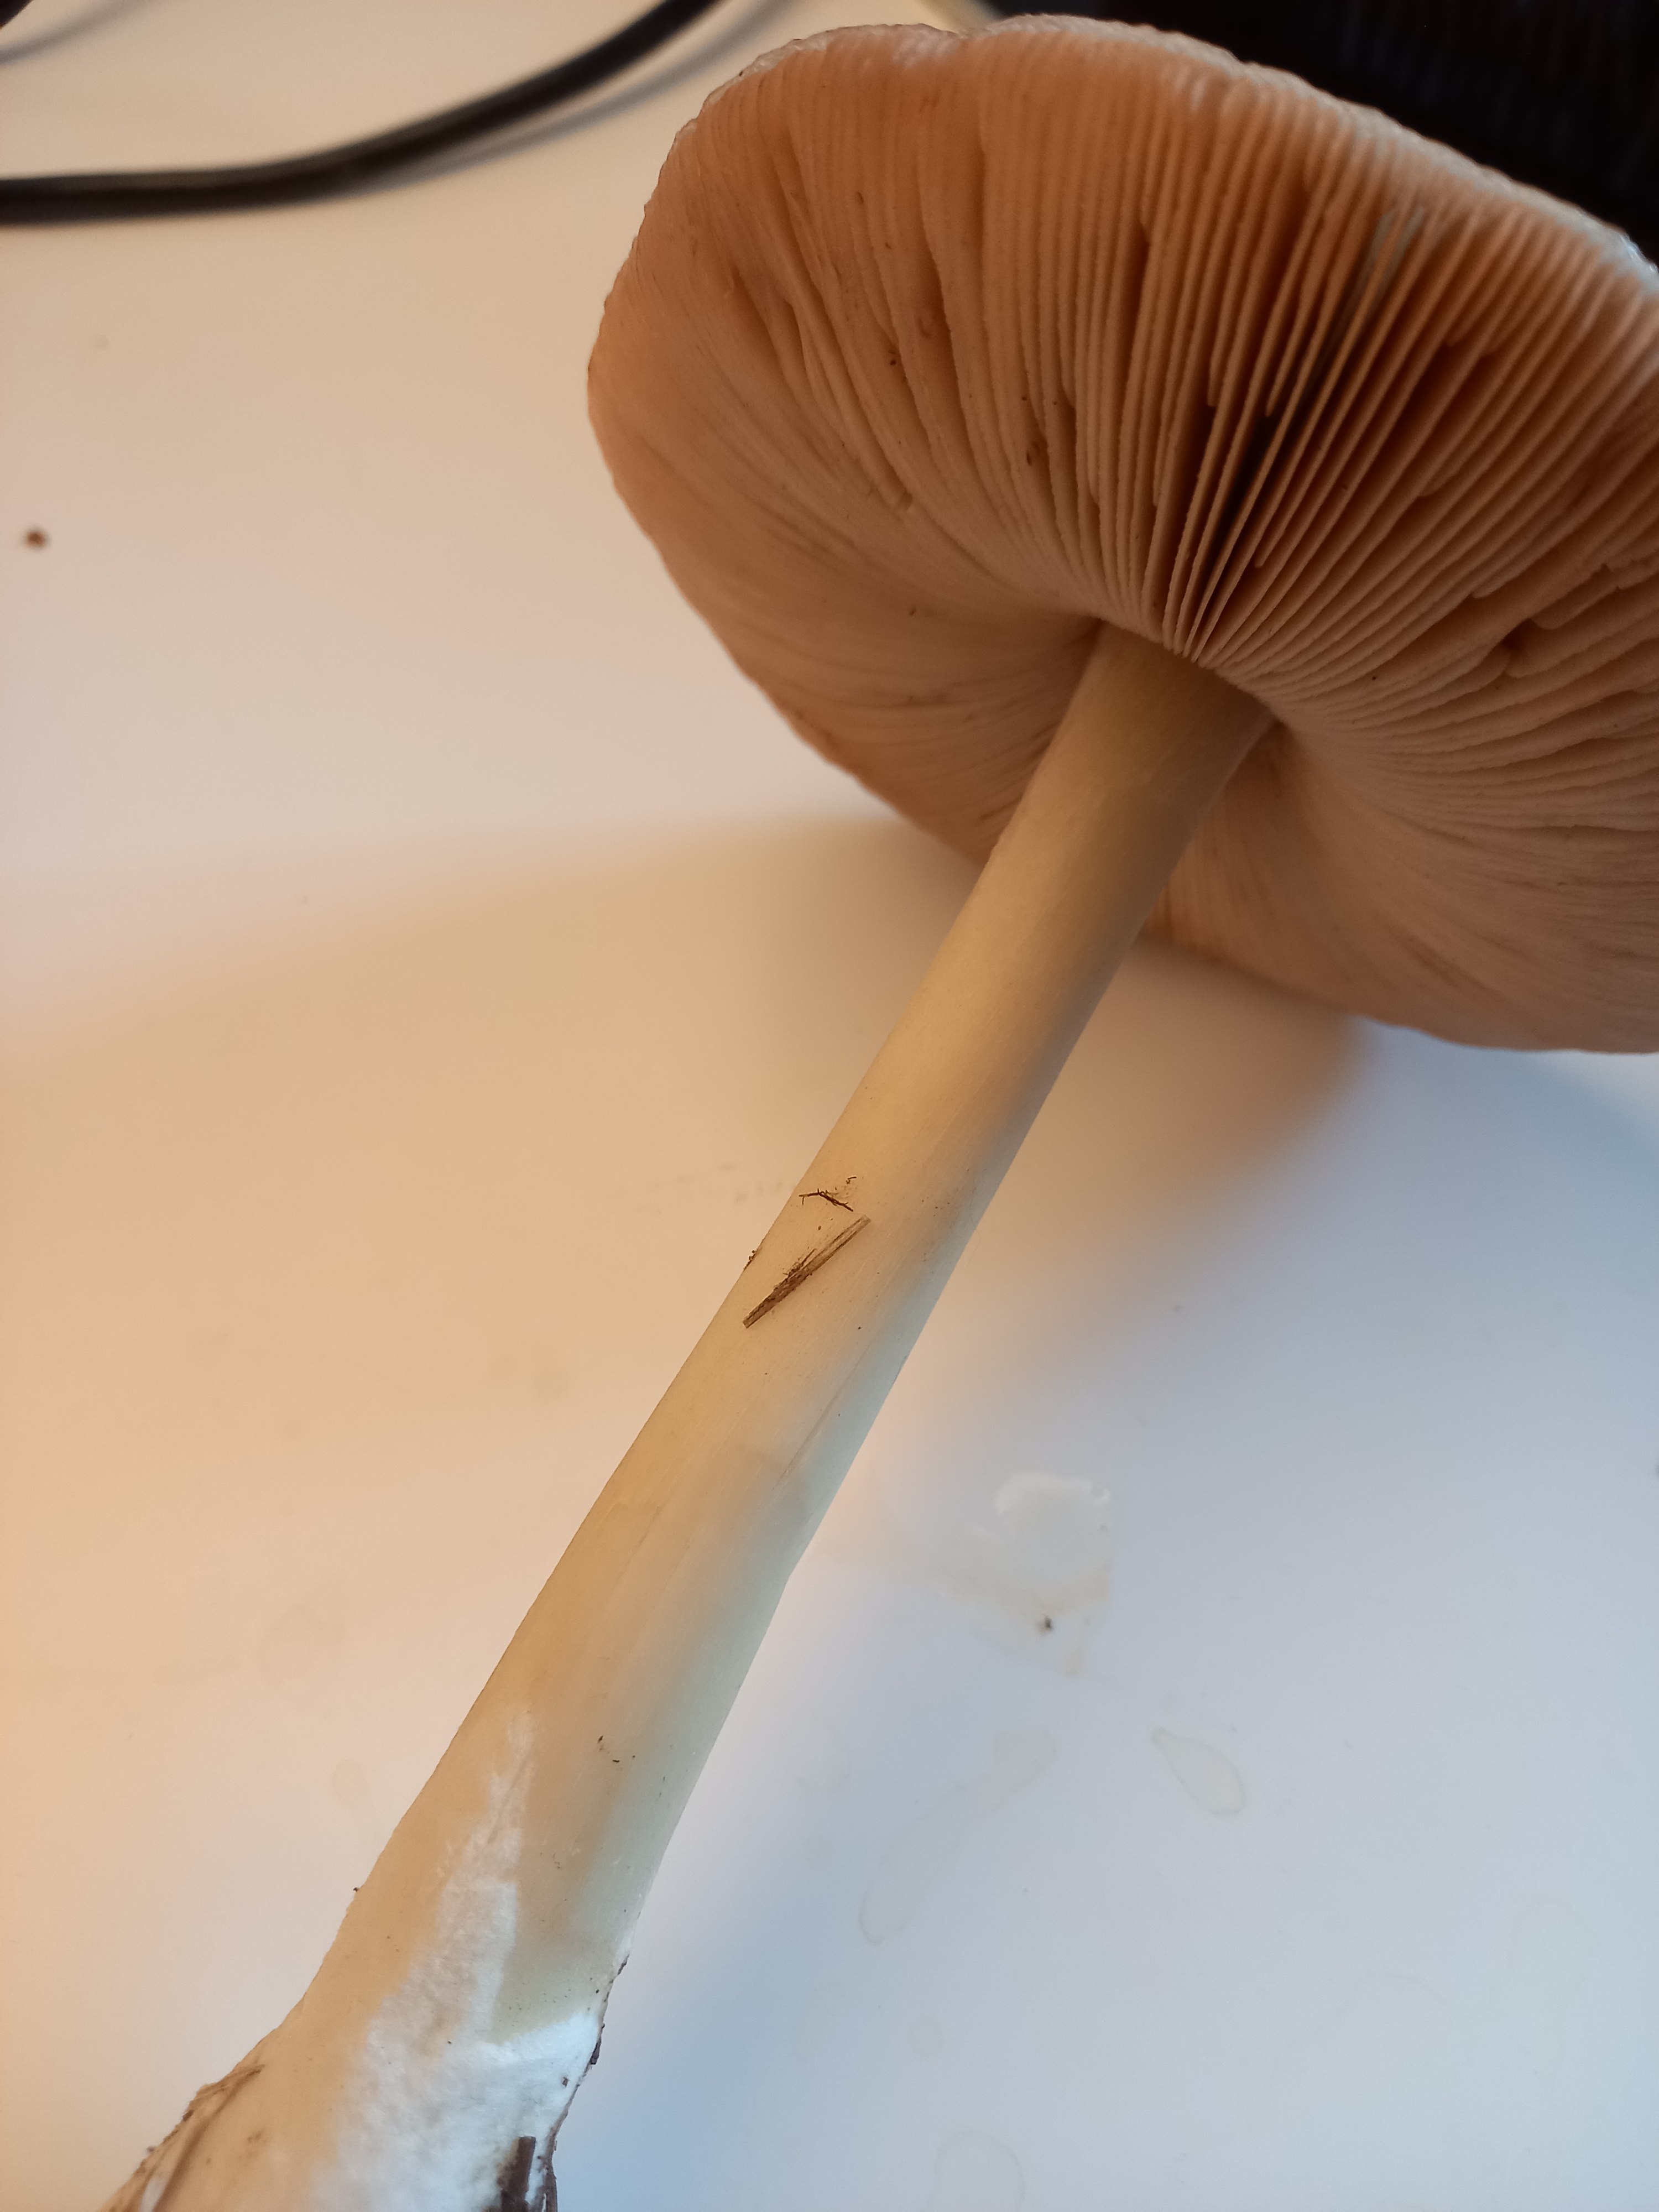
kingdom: Fungi
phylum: Basidiomycota
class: Agaricomycetes
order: Agaricales
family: Pluteaceae
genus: Volvopluteus
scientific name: Volvopluteus gloiocephalus
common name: høj posesvamp
